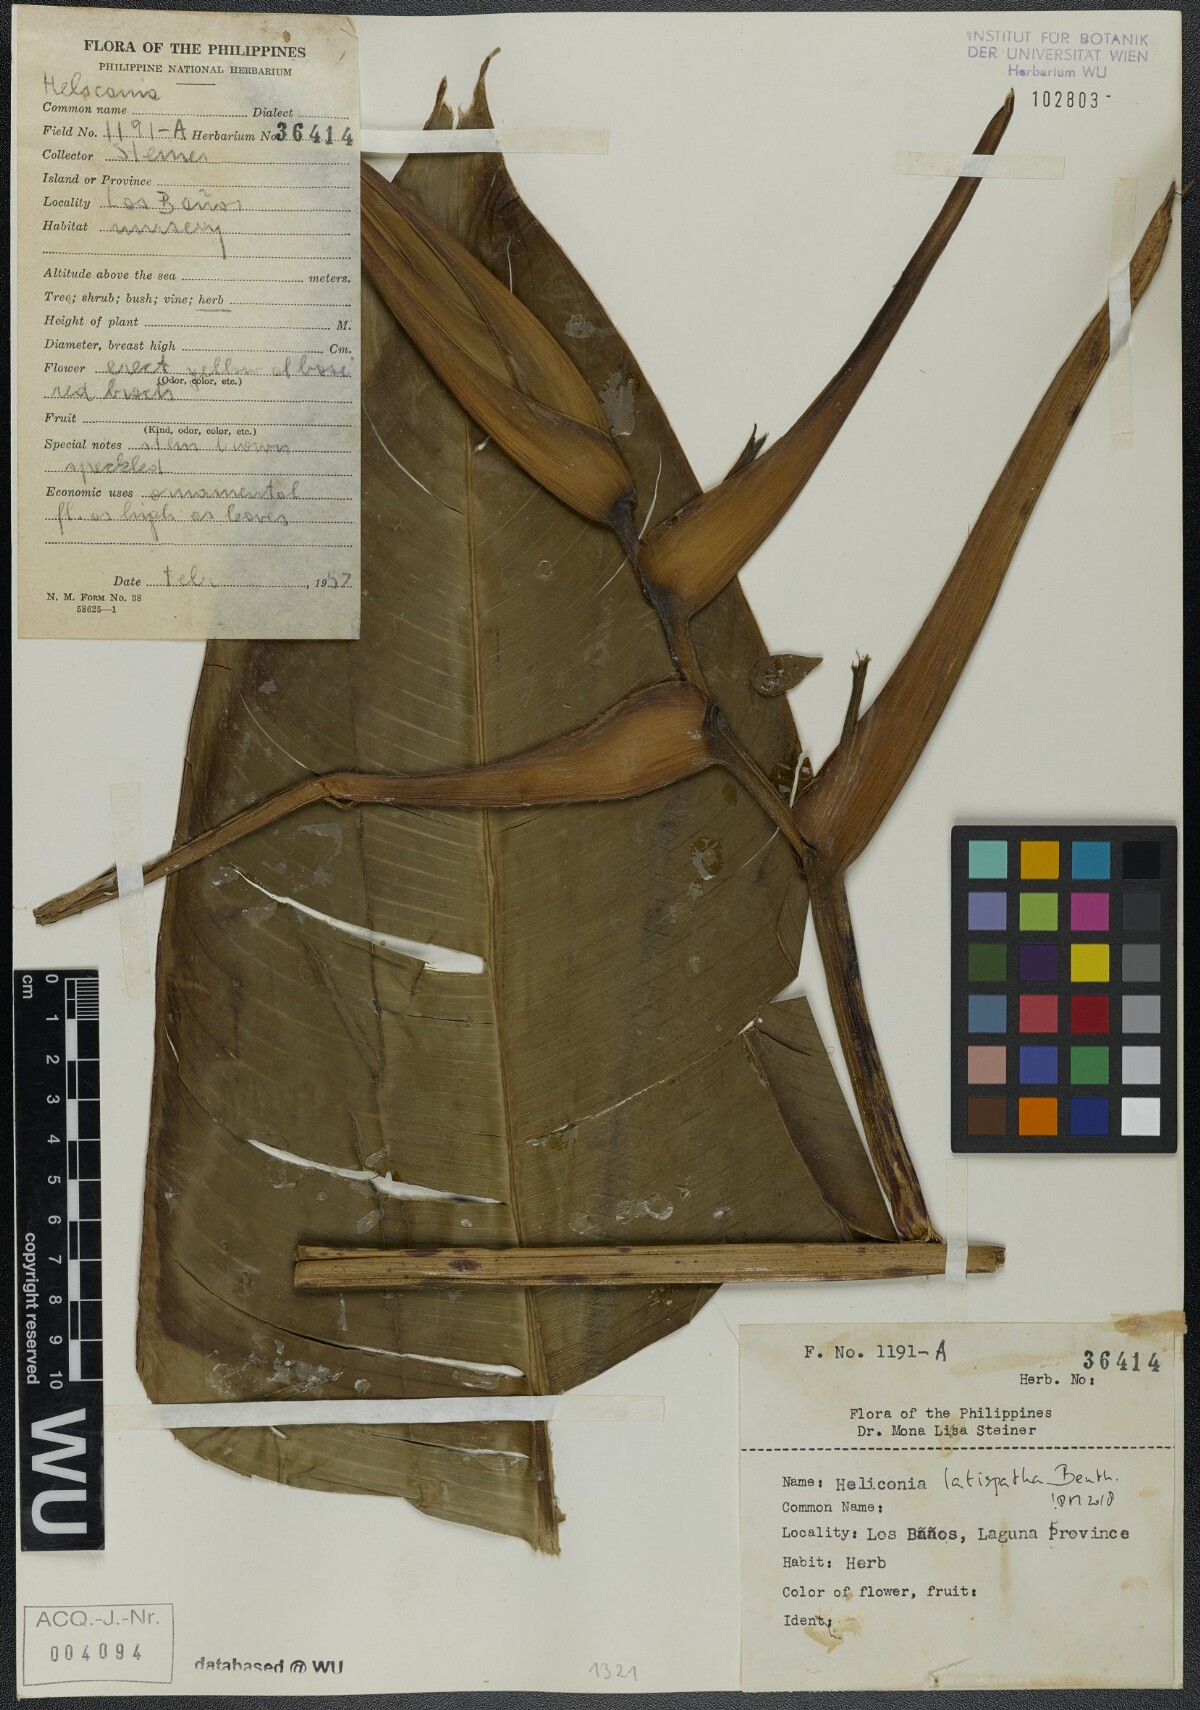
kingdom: Plantae
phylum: Tracheophyta
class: Liliopsida
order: Zingiberales
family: Heliconiaceae
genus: Heliconia
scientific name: Heliconia latispatha
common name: Expanded lobsterclaw
